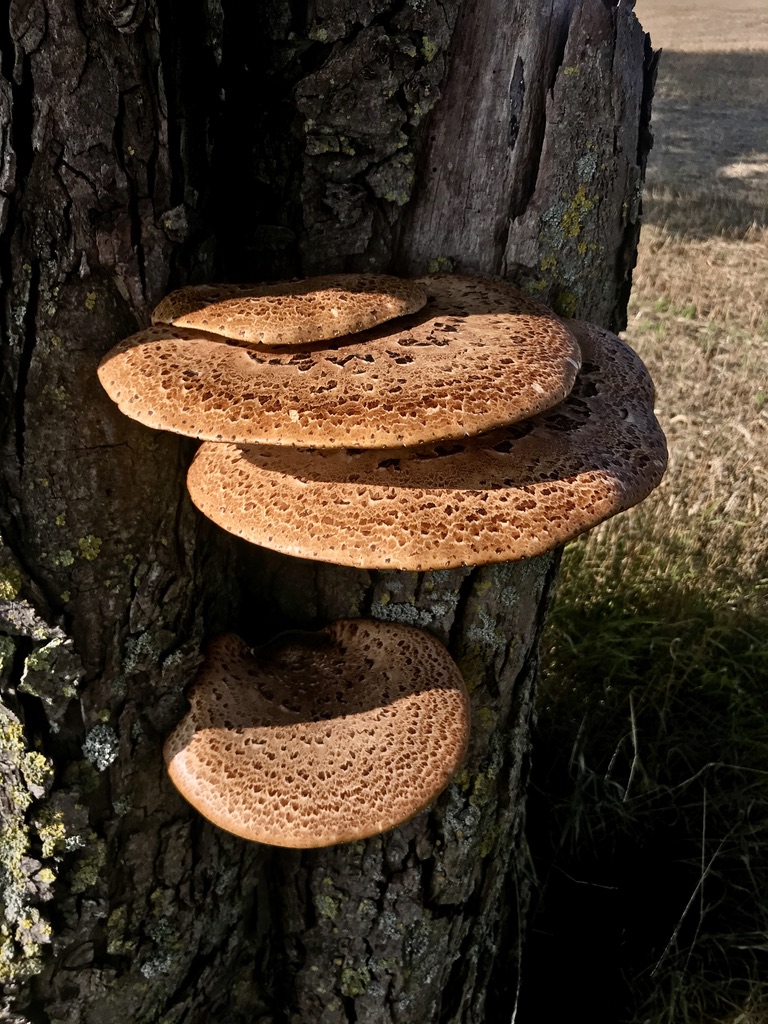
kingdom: Fungi
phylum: Basidiomycota
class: Agaricomycetes
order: Polyporales
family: Polyporaceae
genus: Cerioporus
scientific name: Cerioporus squamosus
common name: skællet stilkporesvamp
